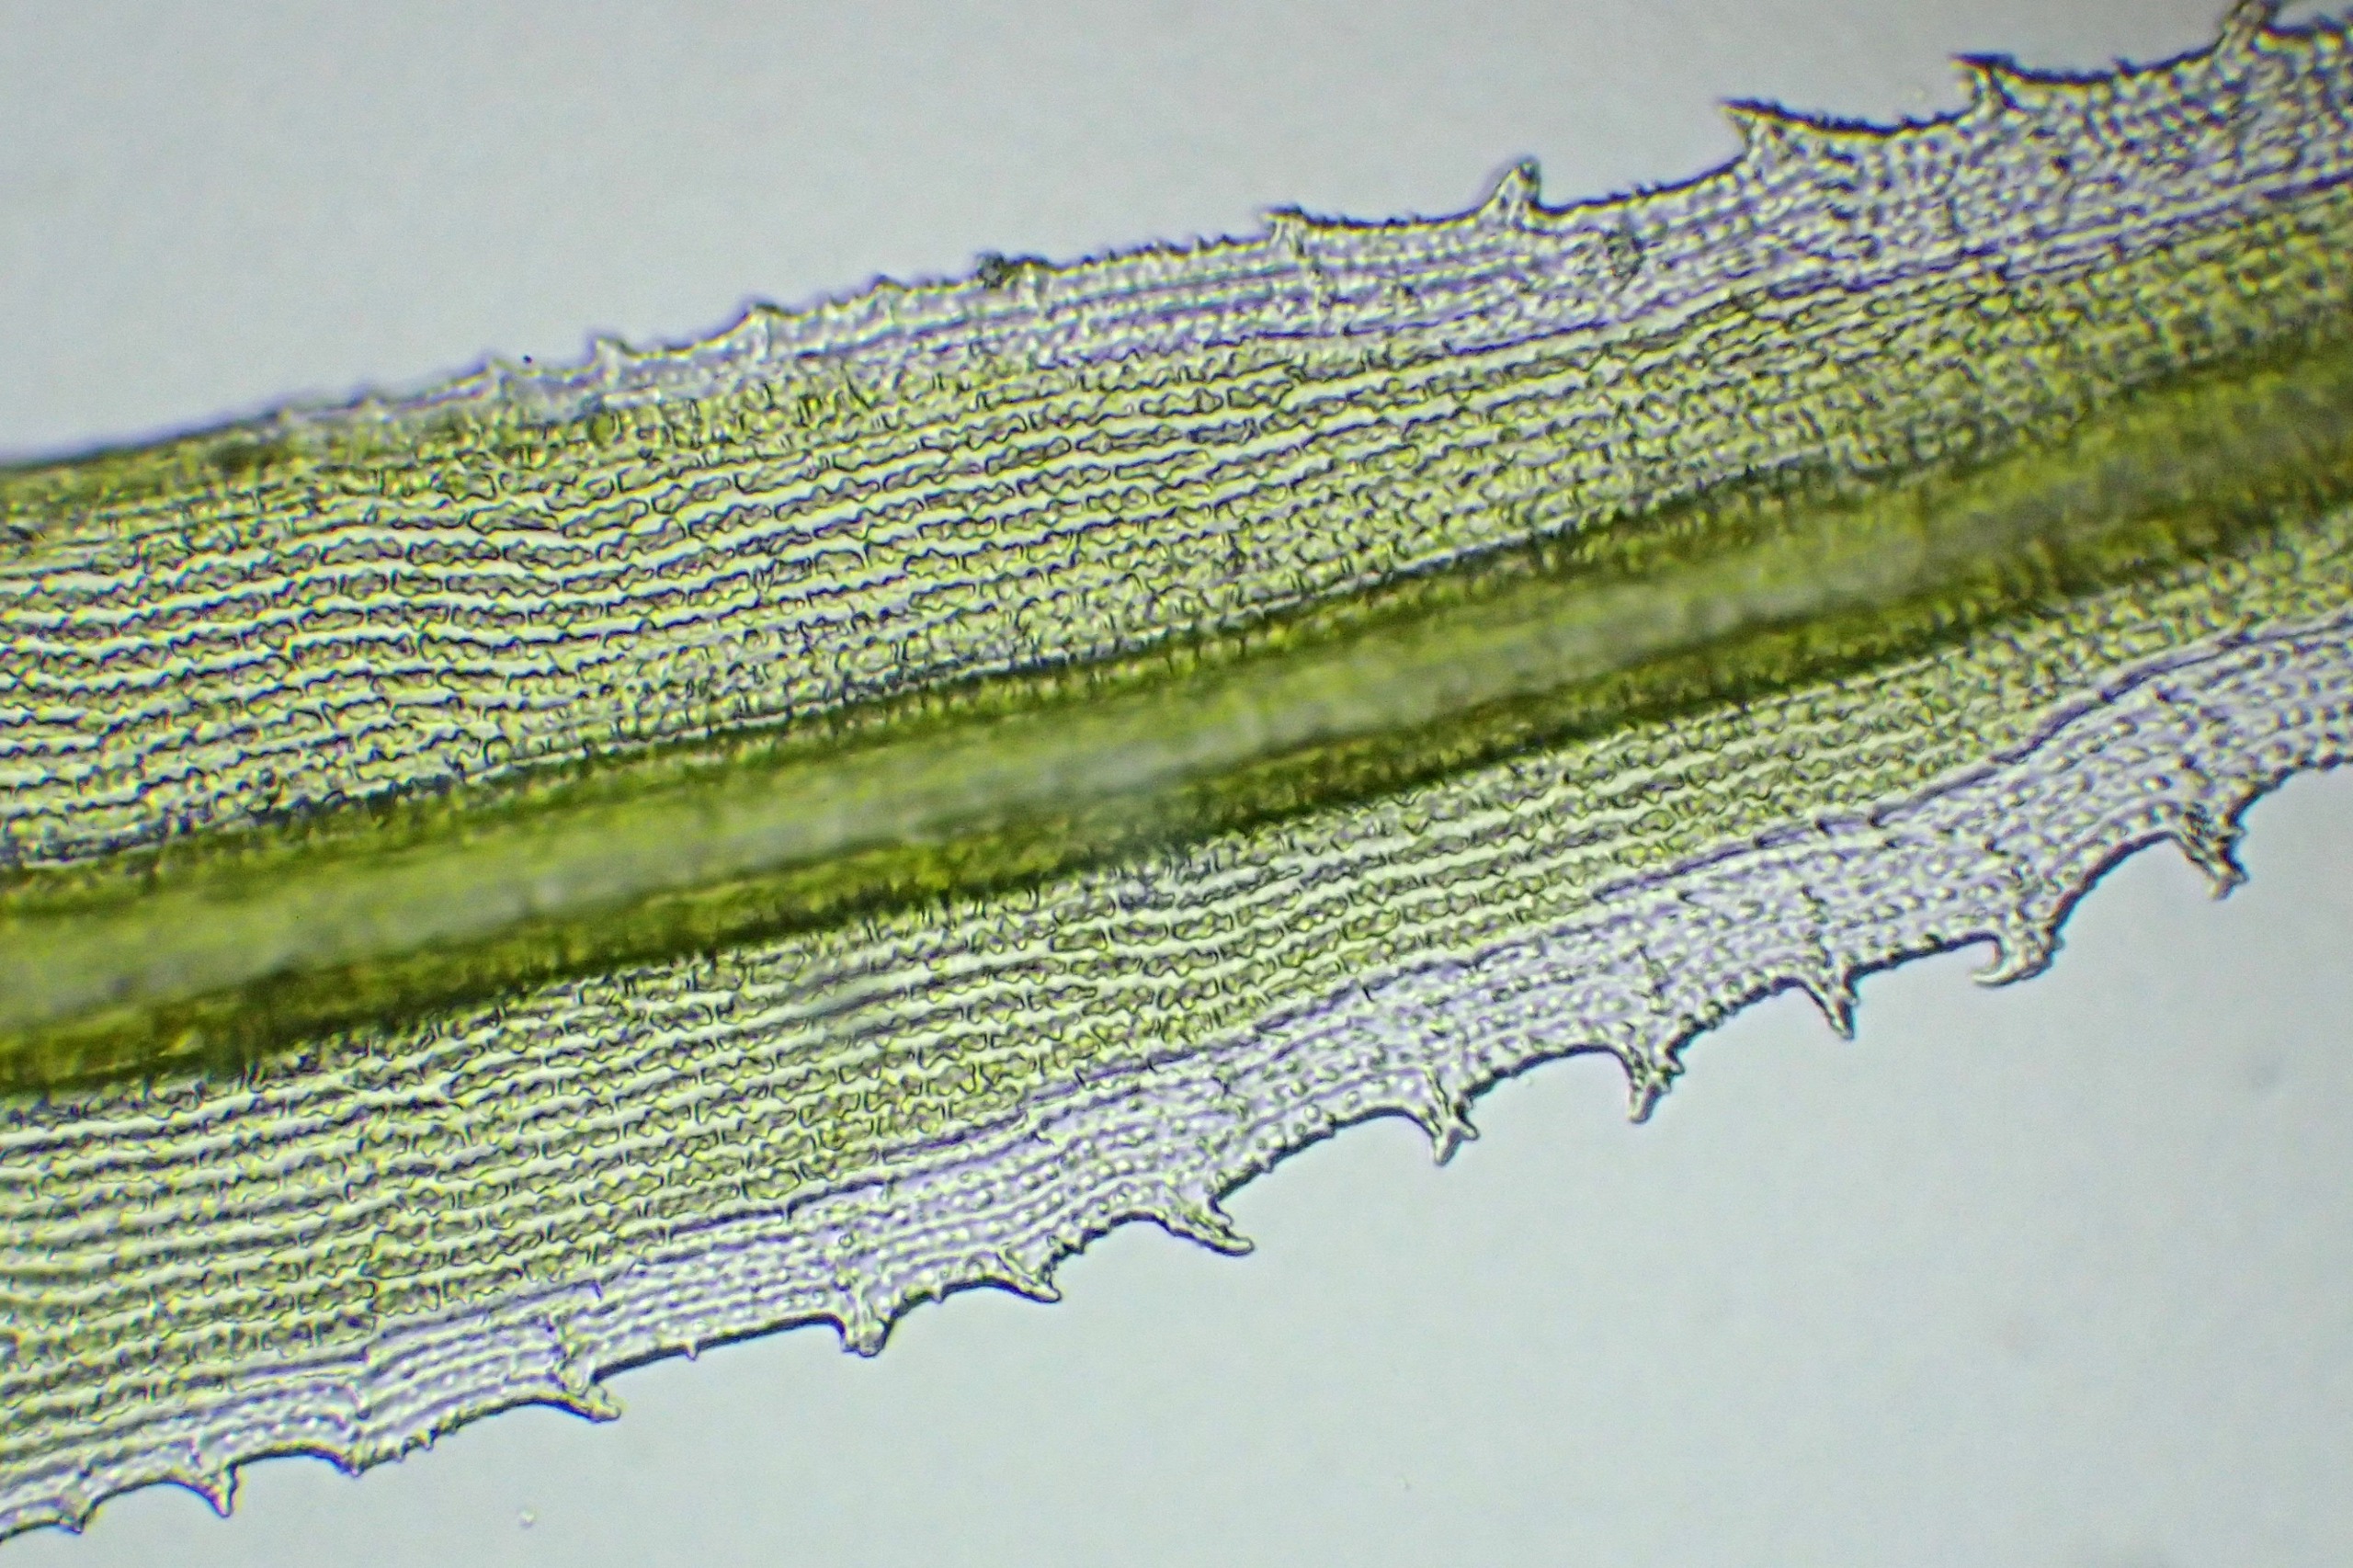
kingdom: Plantae
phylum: Bryophyta
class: Bryopsida
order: Grimmiales
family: Grimmiaceae
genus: Racomitrium
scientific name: Racomitrium lanuginosum
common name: Stor børstemos
